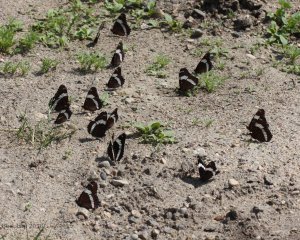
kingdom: Animalia
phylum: Arthropoda
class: Insecta
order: Lepidoptera
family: Nymphalidae
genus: Limenitis
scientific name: Limenitis arthemis
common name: Red-spotted Admiral
